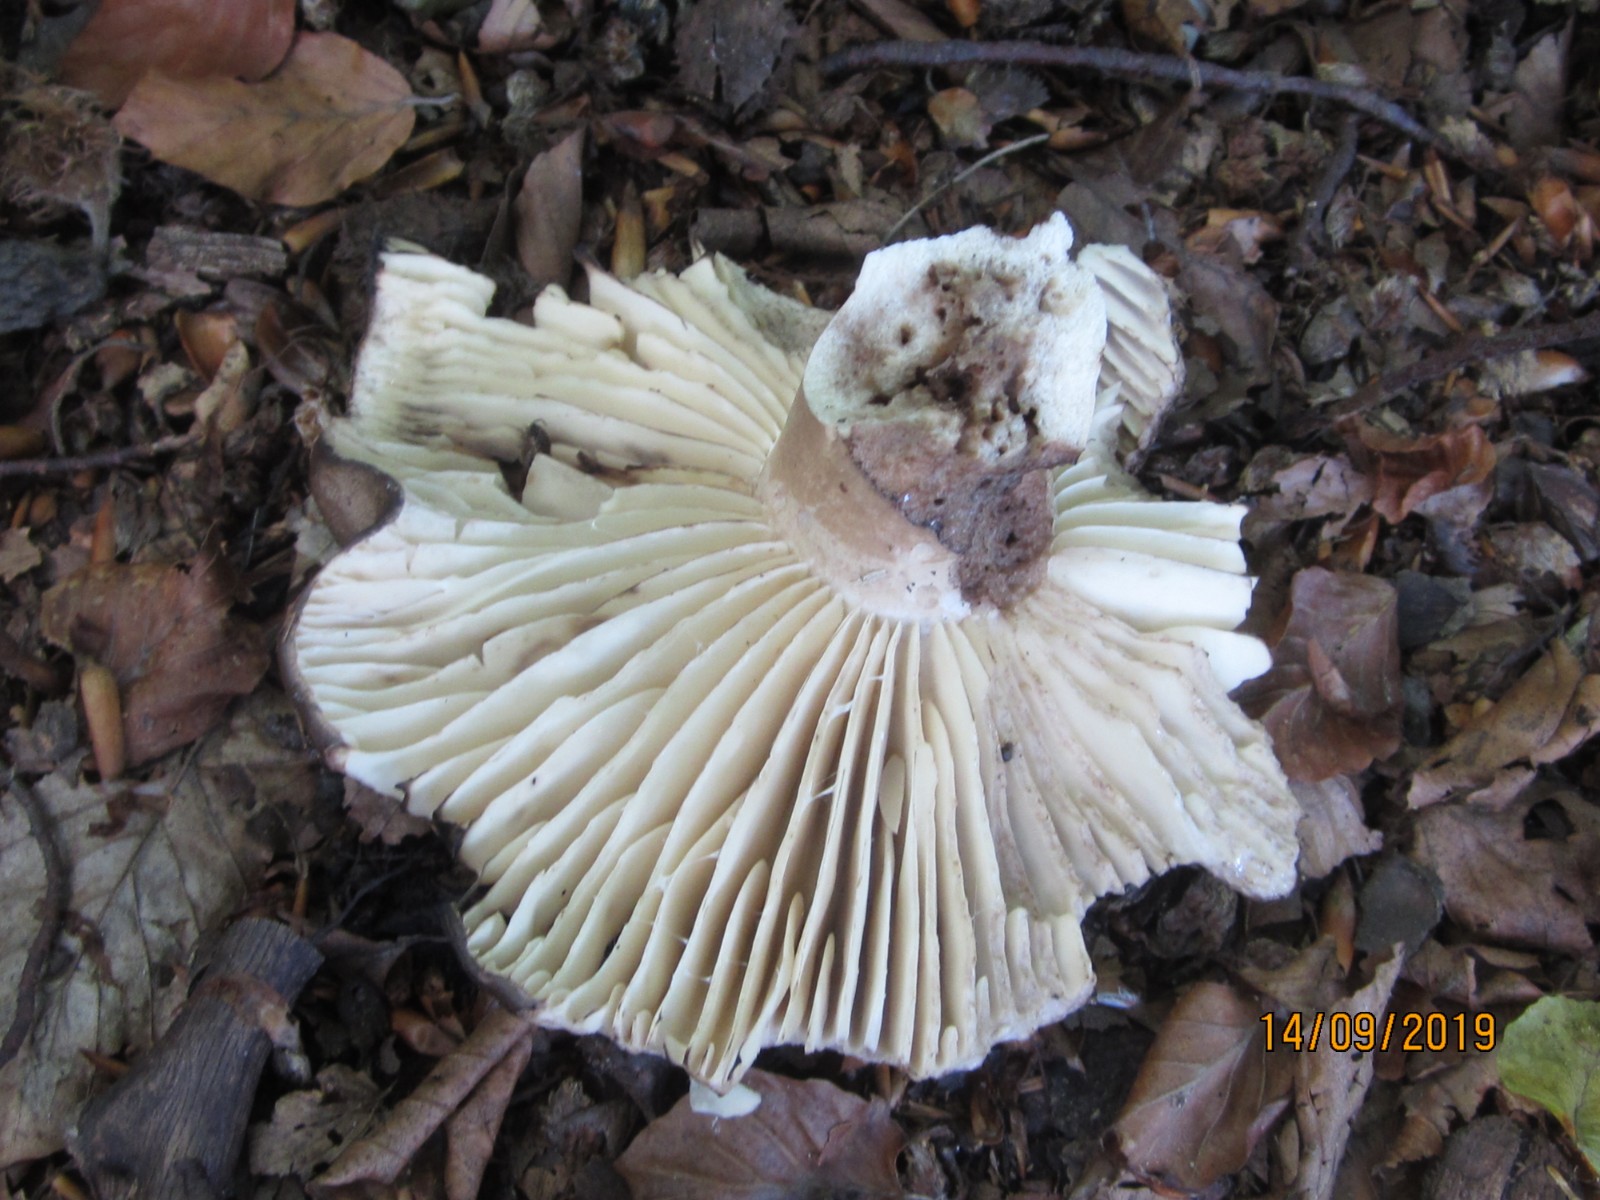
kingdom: Fungi
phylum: Basidiomycota
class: Agaricomycetes
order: Russulales
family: Russulaceae
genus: Russula
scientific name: Russula adusta
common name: sværtende skørhat
